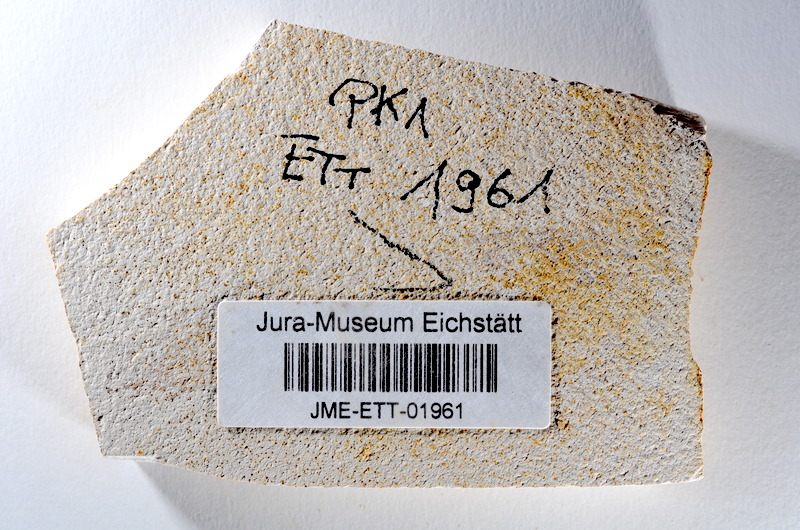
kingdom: Animalia
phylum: Chordata
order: Salmoniformes
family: Orthogonikleithridae
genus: Orthogonikleithrus
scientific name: Orthogonikleithrus hoelli
